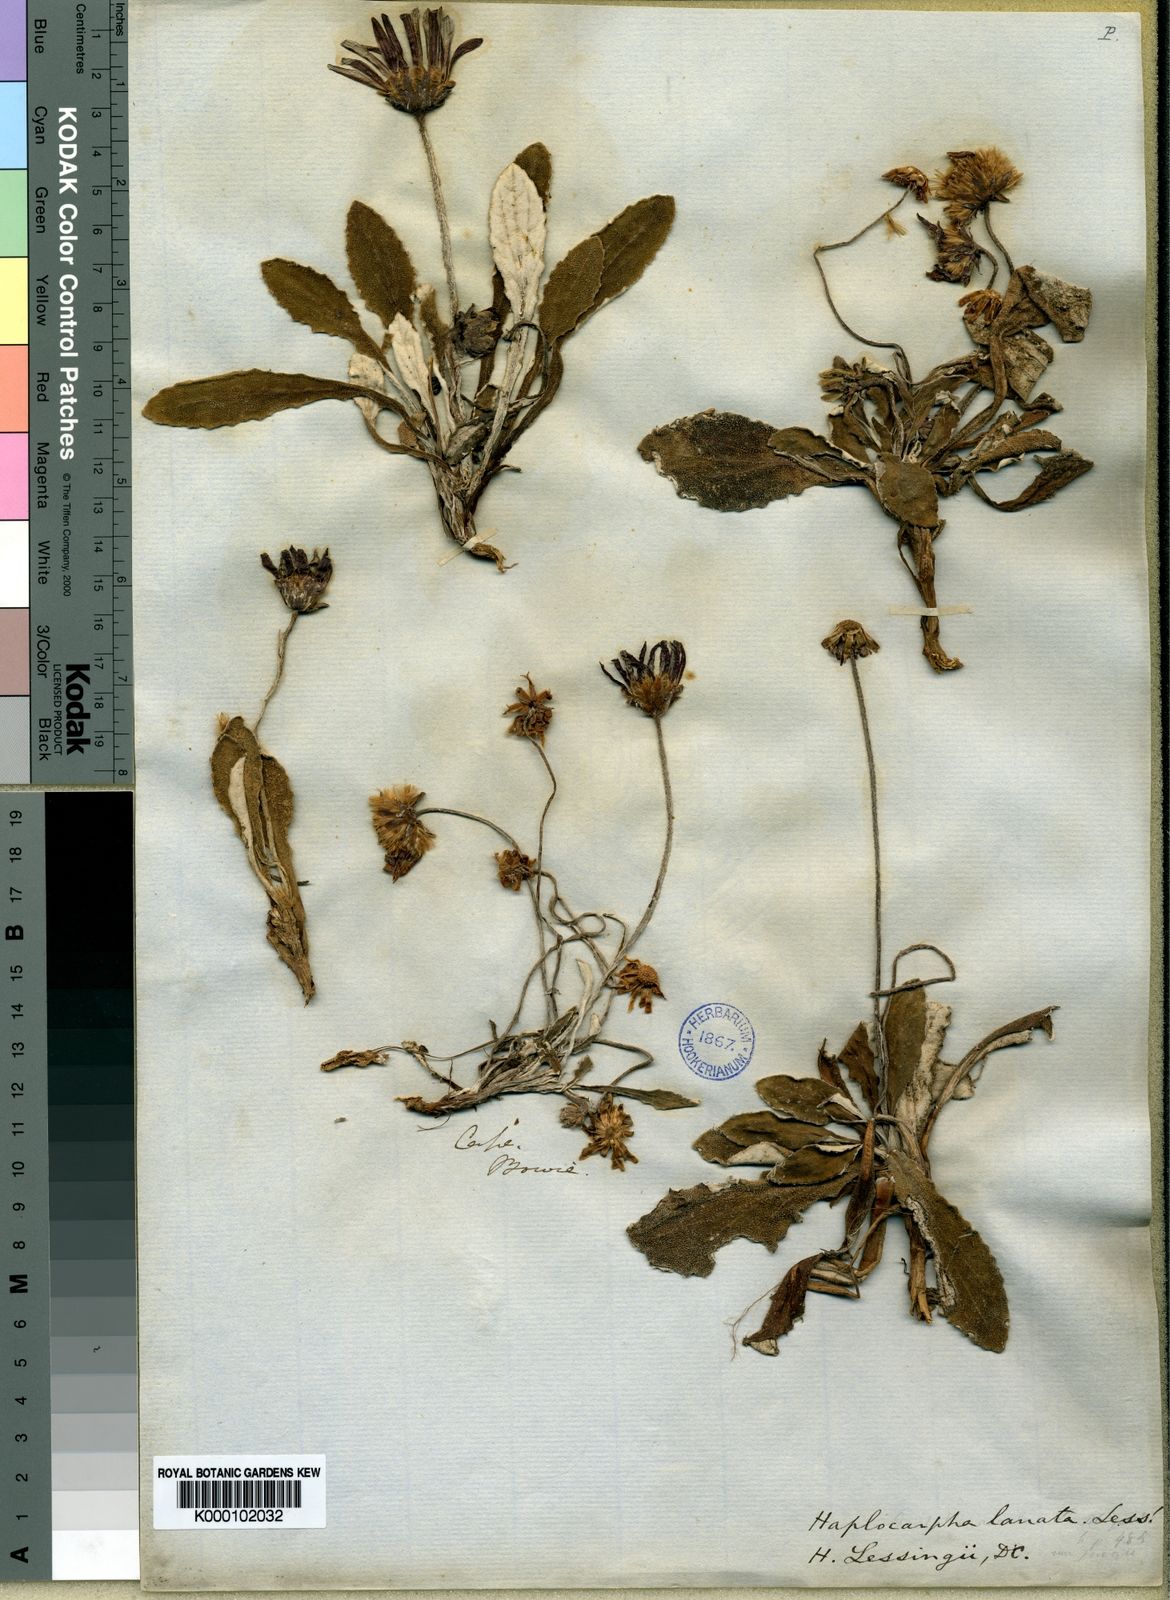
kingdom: Plantae
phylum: Tracheophyta
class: Magnoliopsida
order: Asterales
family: Asteraceae
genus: Haplocarpha
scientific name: Haplocarpha lanata
